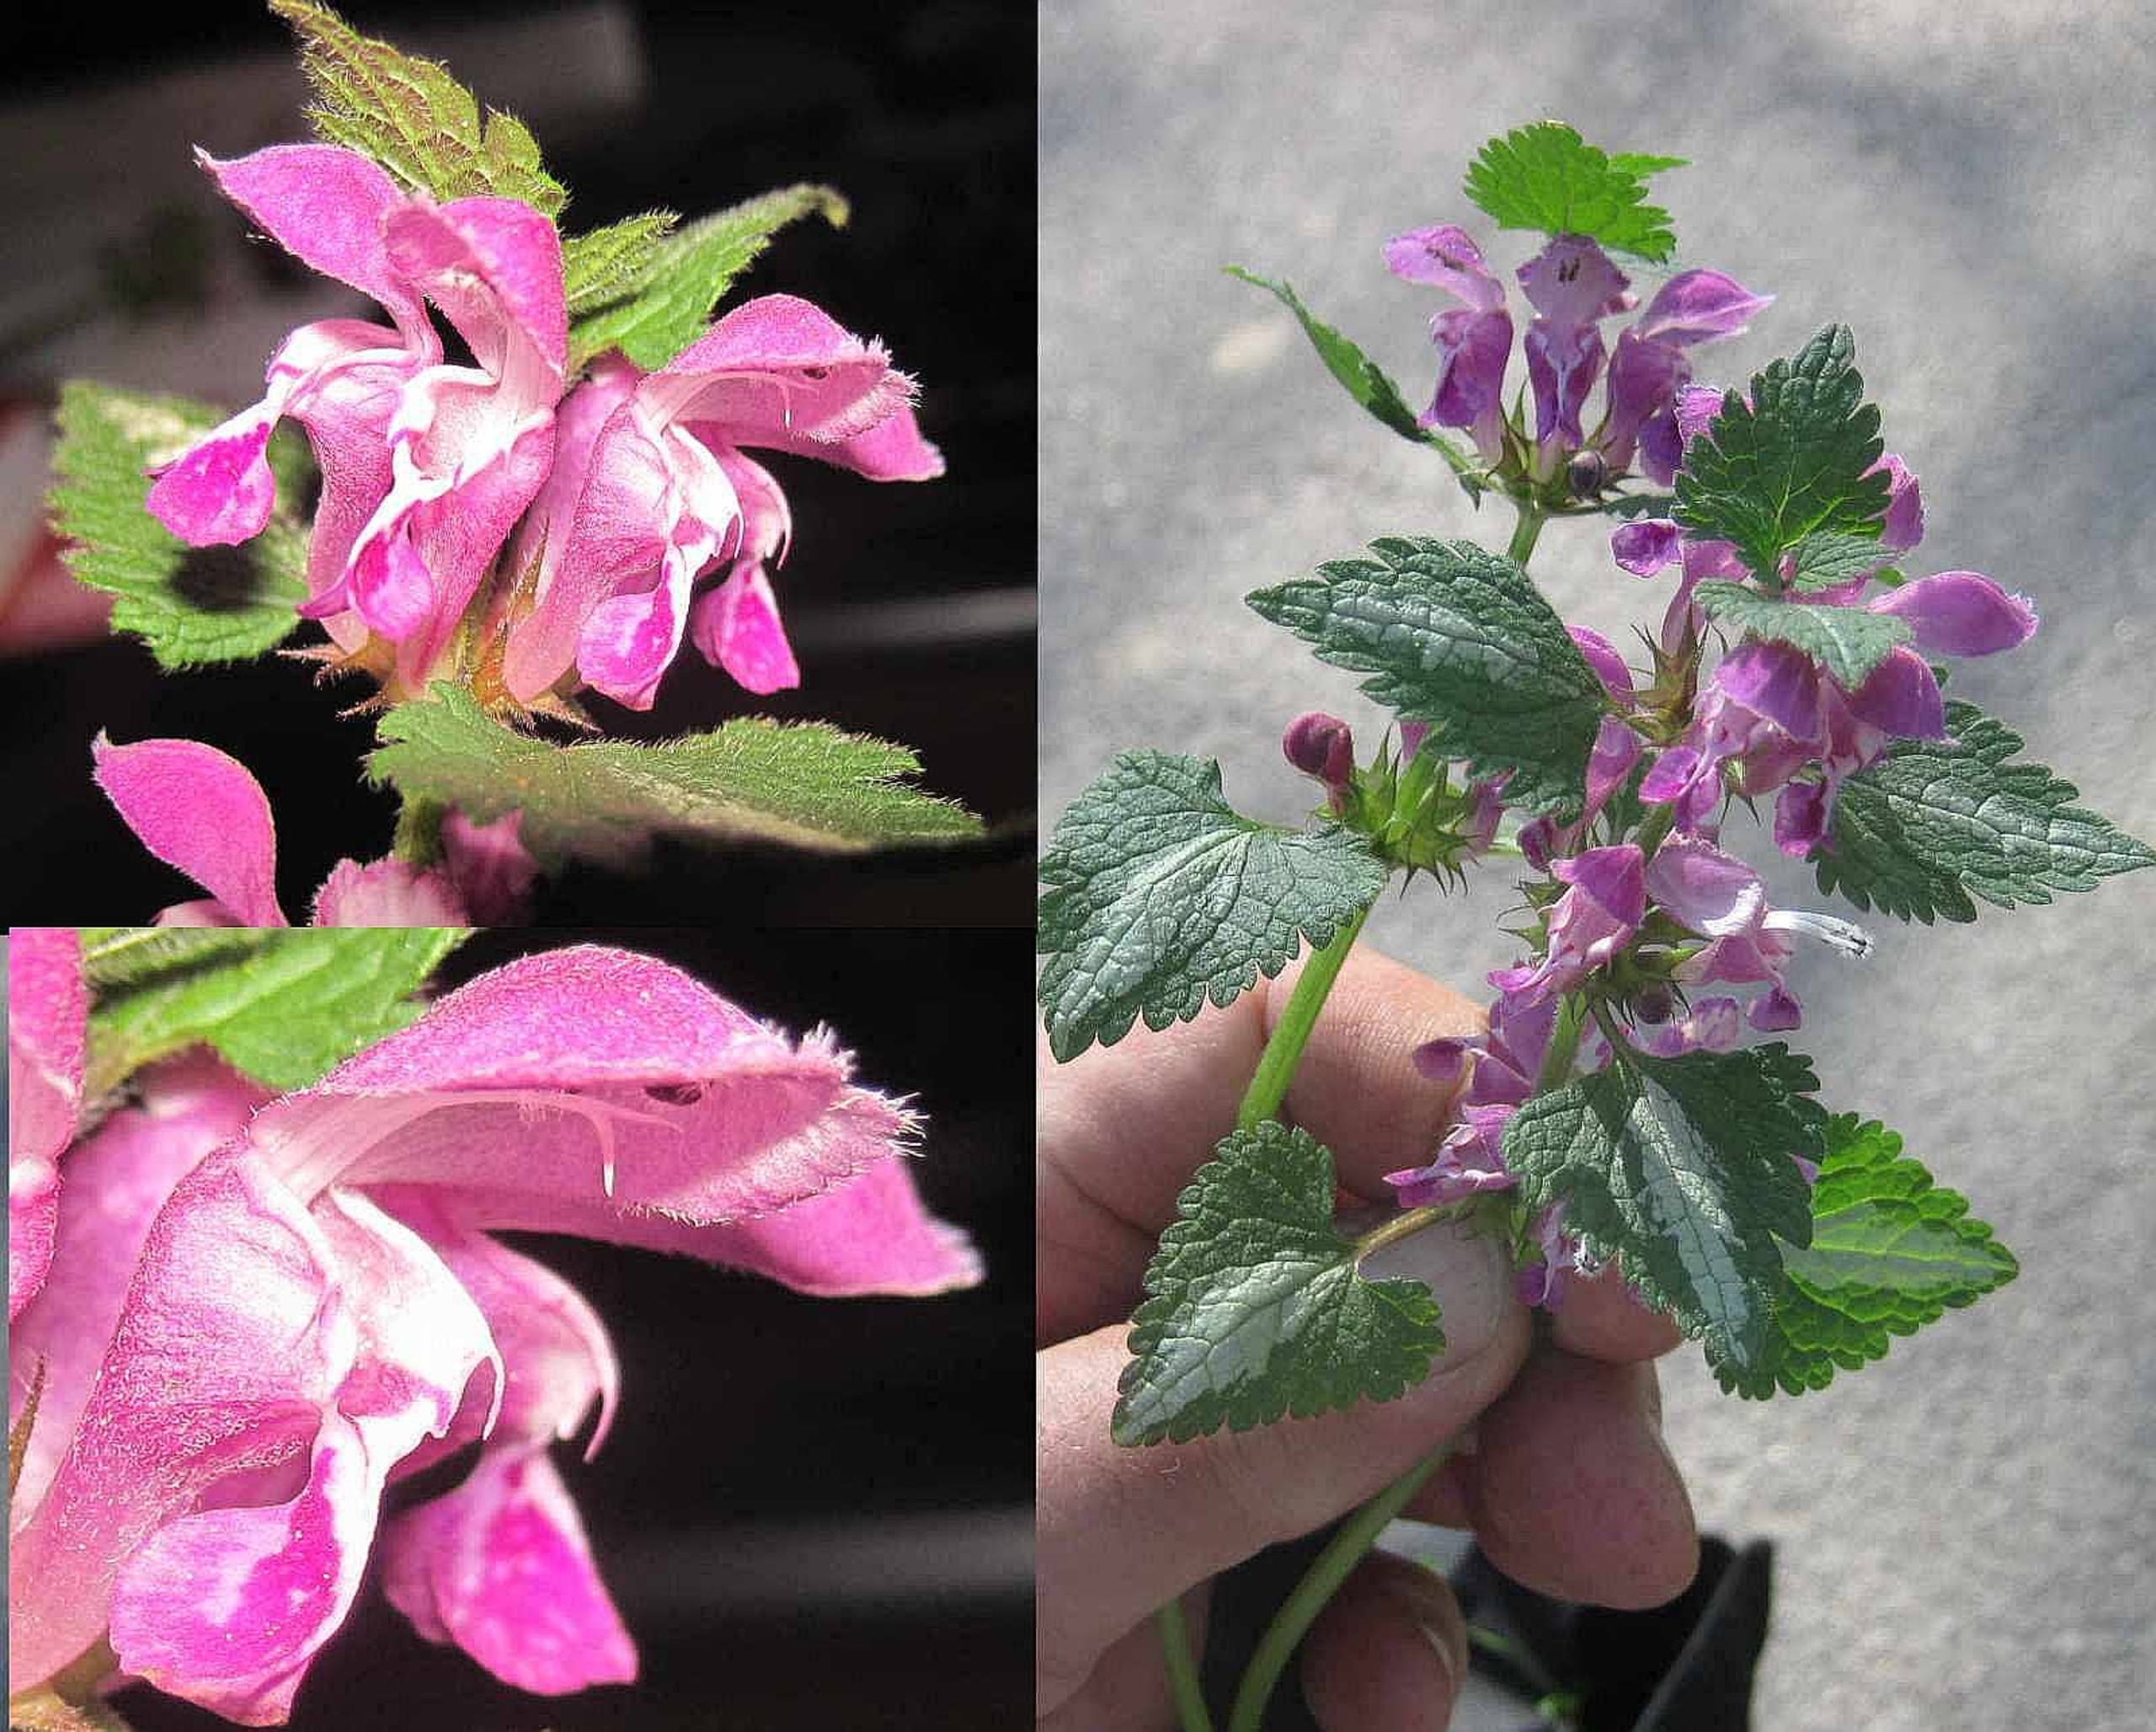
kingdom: Plantae
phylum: Tracheophyta
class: Magnoliopsida
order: Lamiales
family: Lamiaceae
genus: Lamium
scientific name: Lamium maculatum
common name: Plettet tvetand
